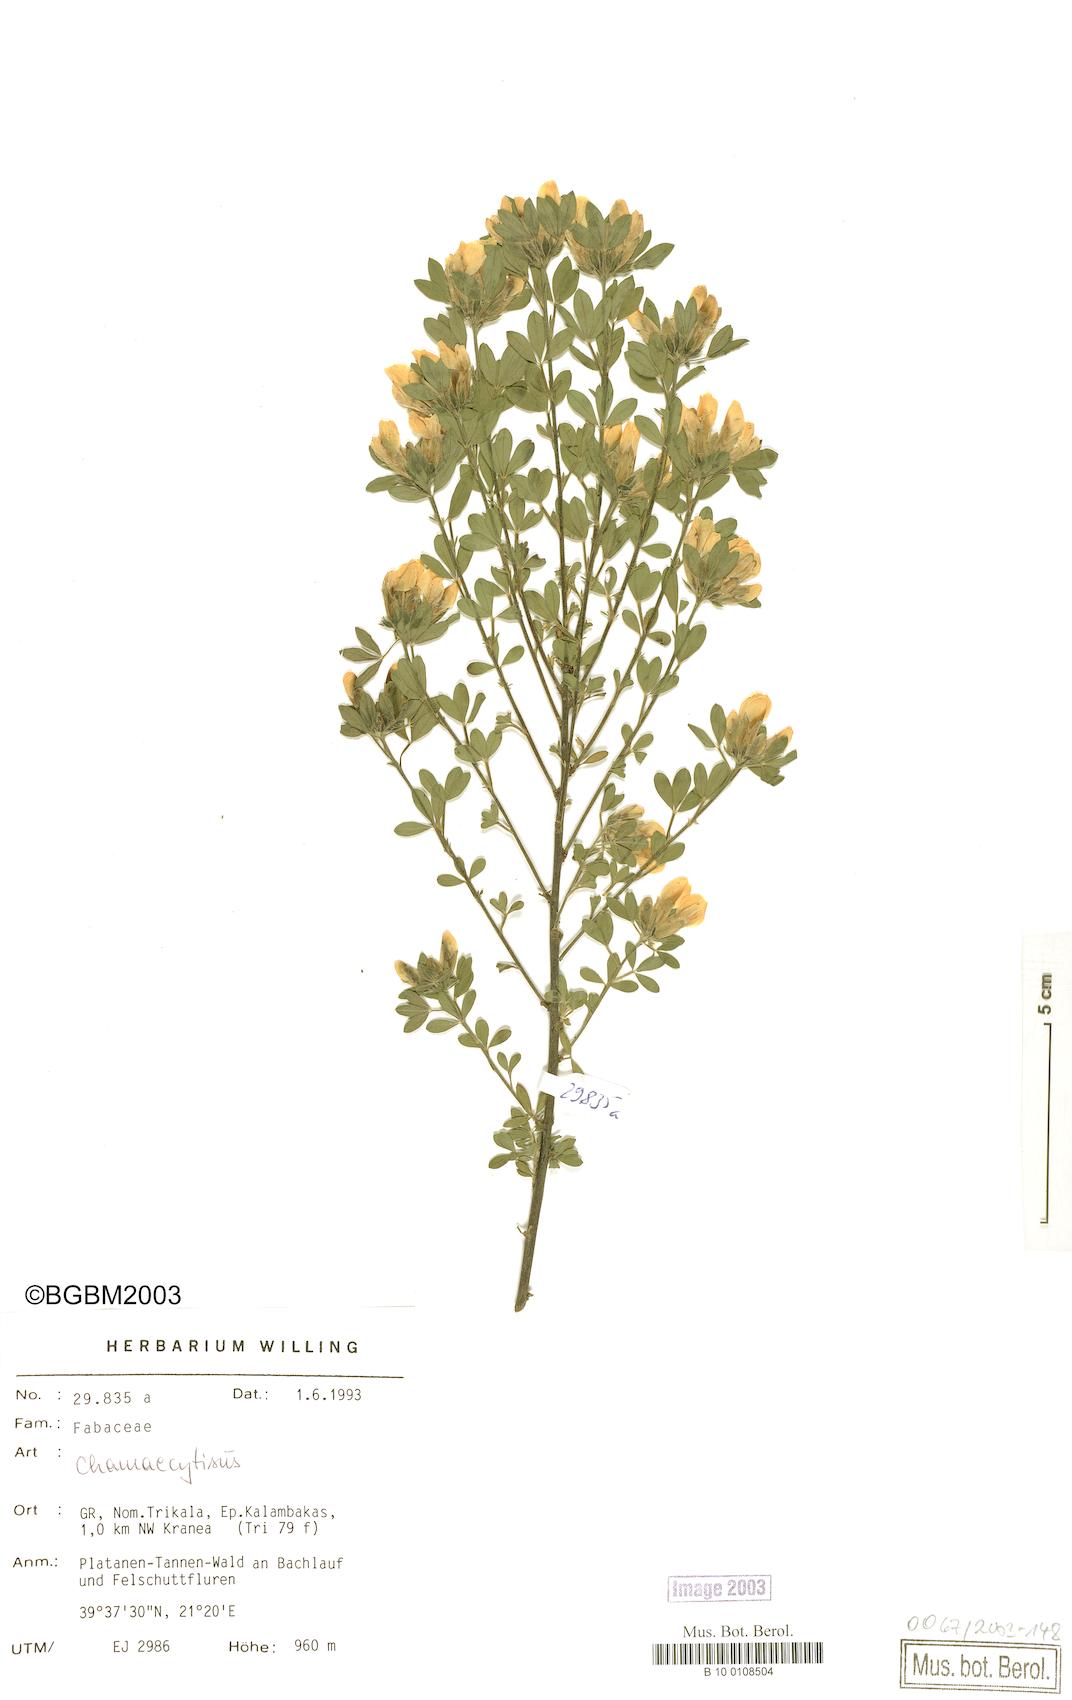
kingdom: Plantae
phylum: Tracheophyta
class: Magnoliopsida
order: Fabales
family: Fabaceae
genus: Chamaecytisus
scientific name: Chamaecytisus
